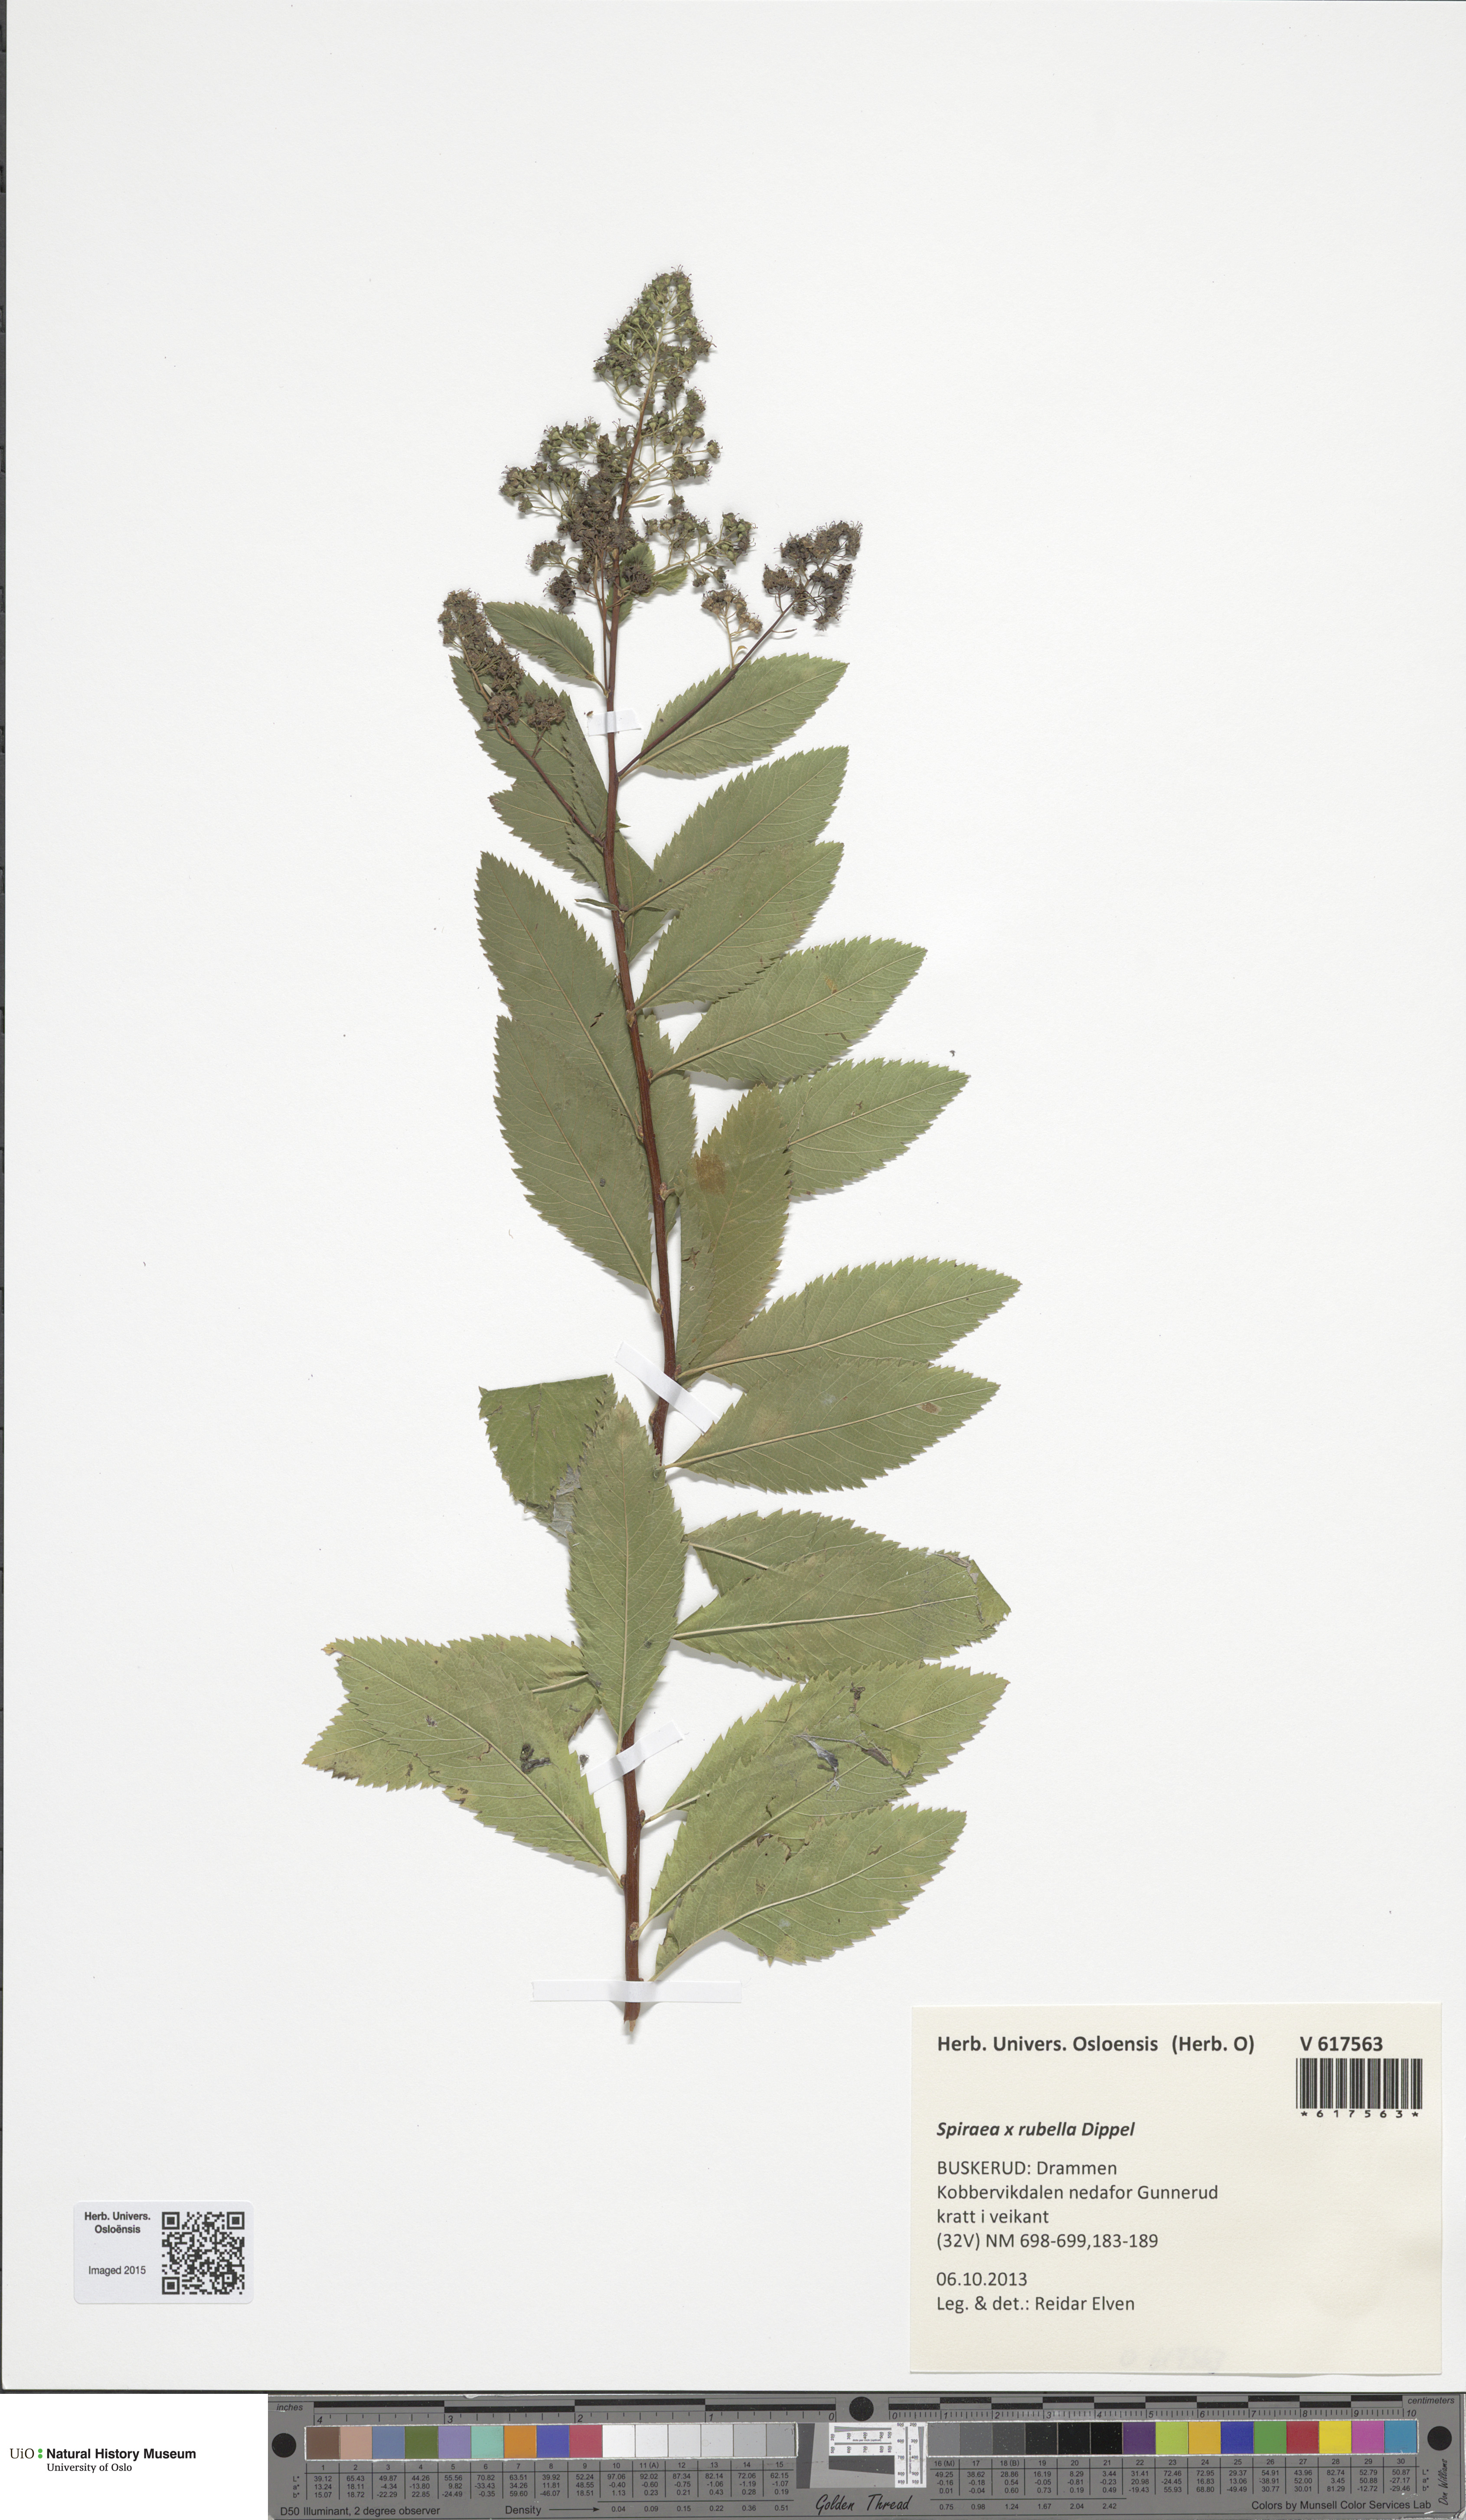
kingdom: Plantae
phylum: Tracheophyta
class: Magnoliopsida
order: Rosales
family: Rosaceae
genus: Spiraea
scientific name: Spiraea rosalba
